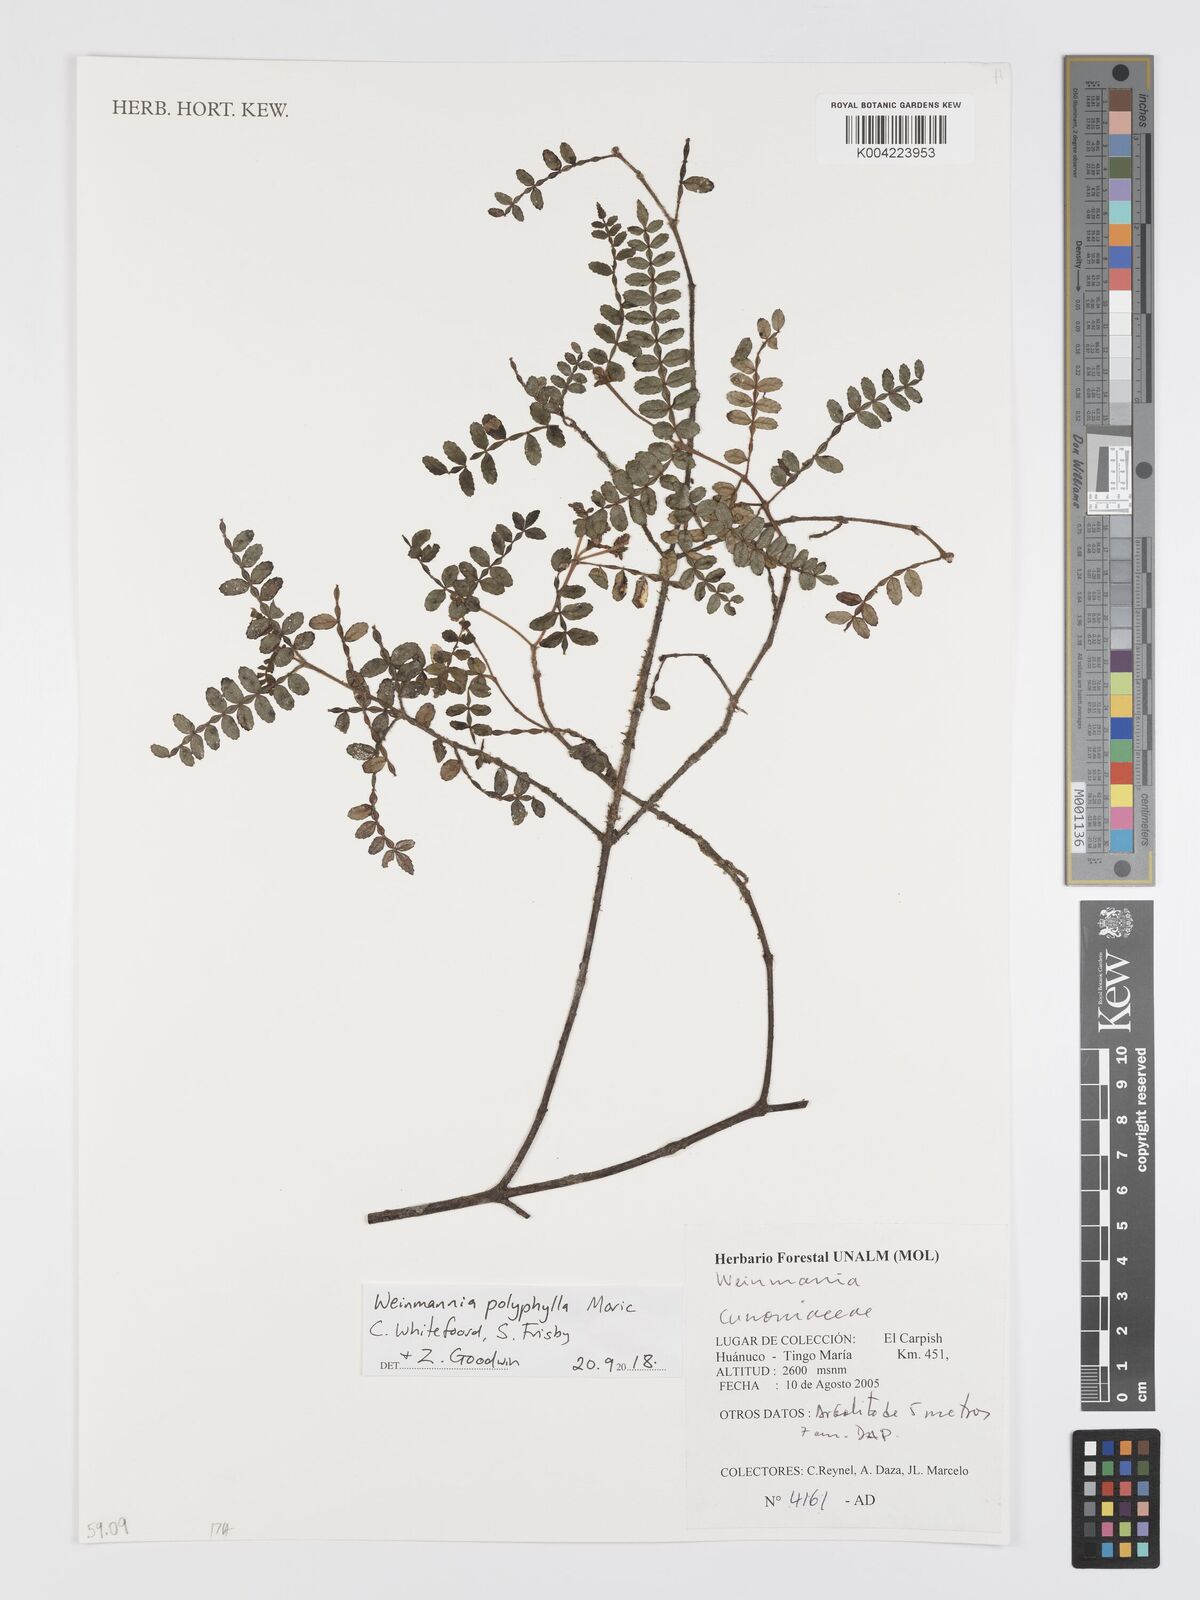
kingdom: Plantae
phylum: Tracheophyta
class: Magnoliopsida
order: Oxalidales
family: Cunoniaceae
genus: Weinmannia
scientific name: Weinmannia polyphylla
